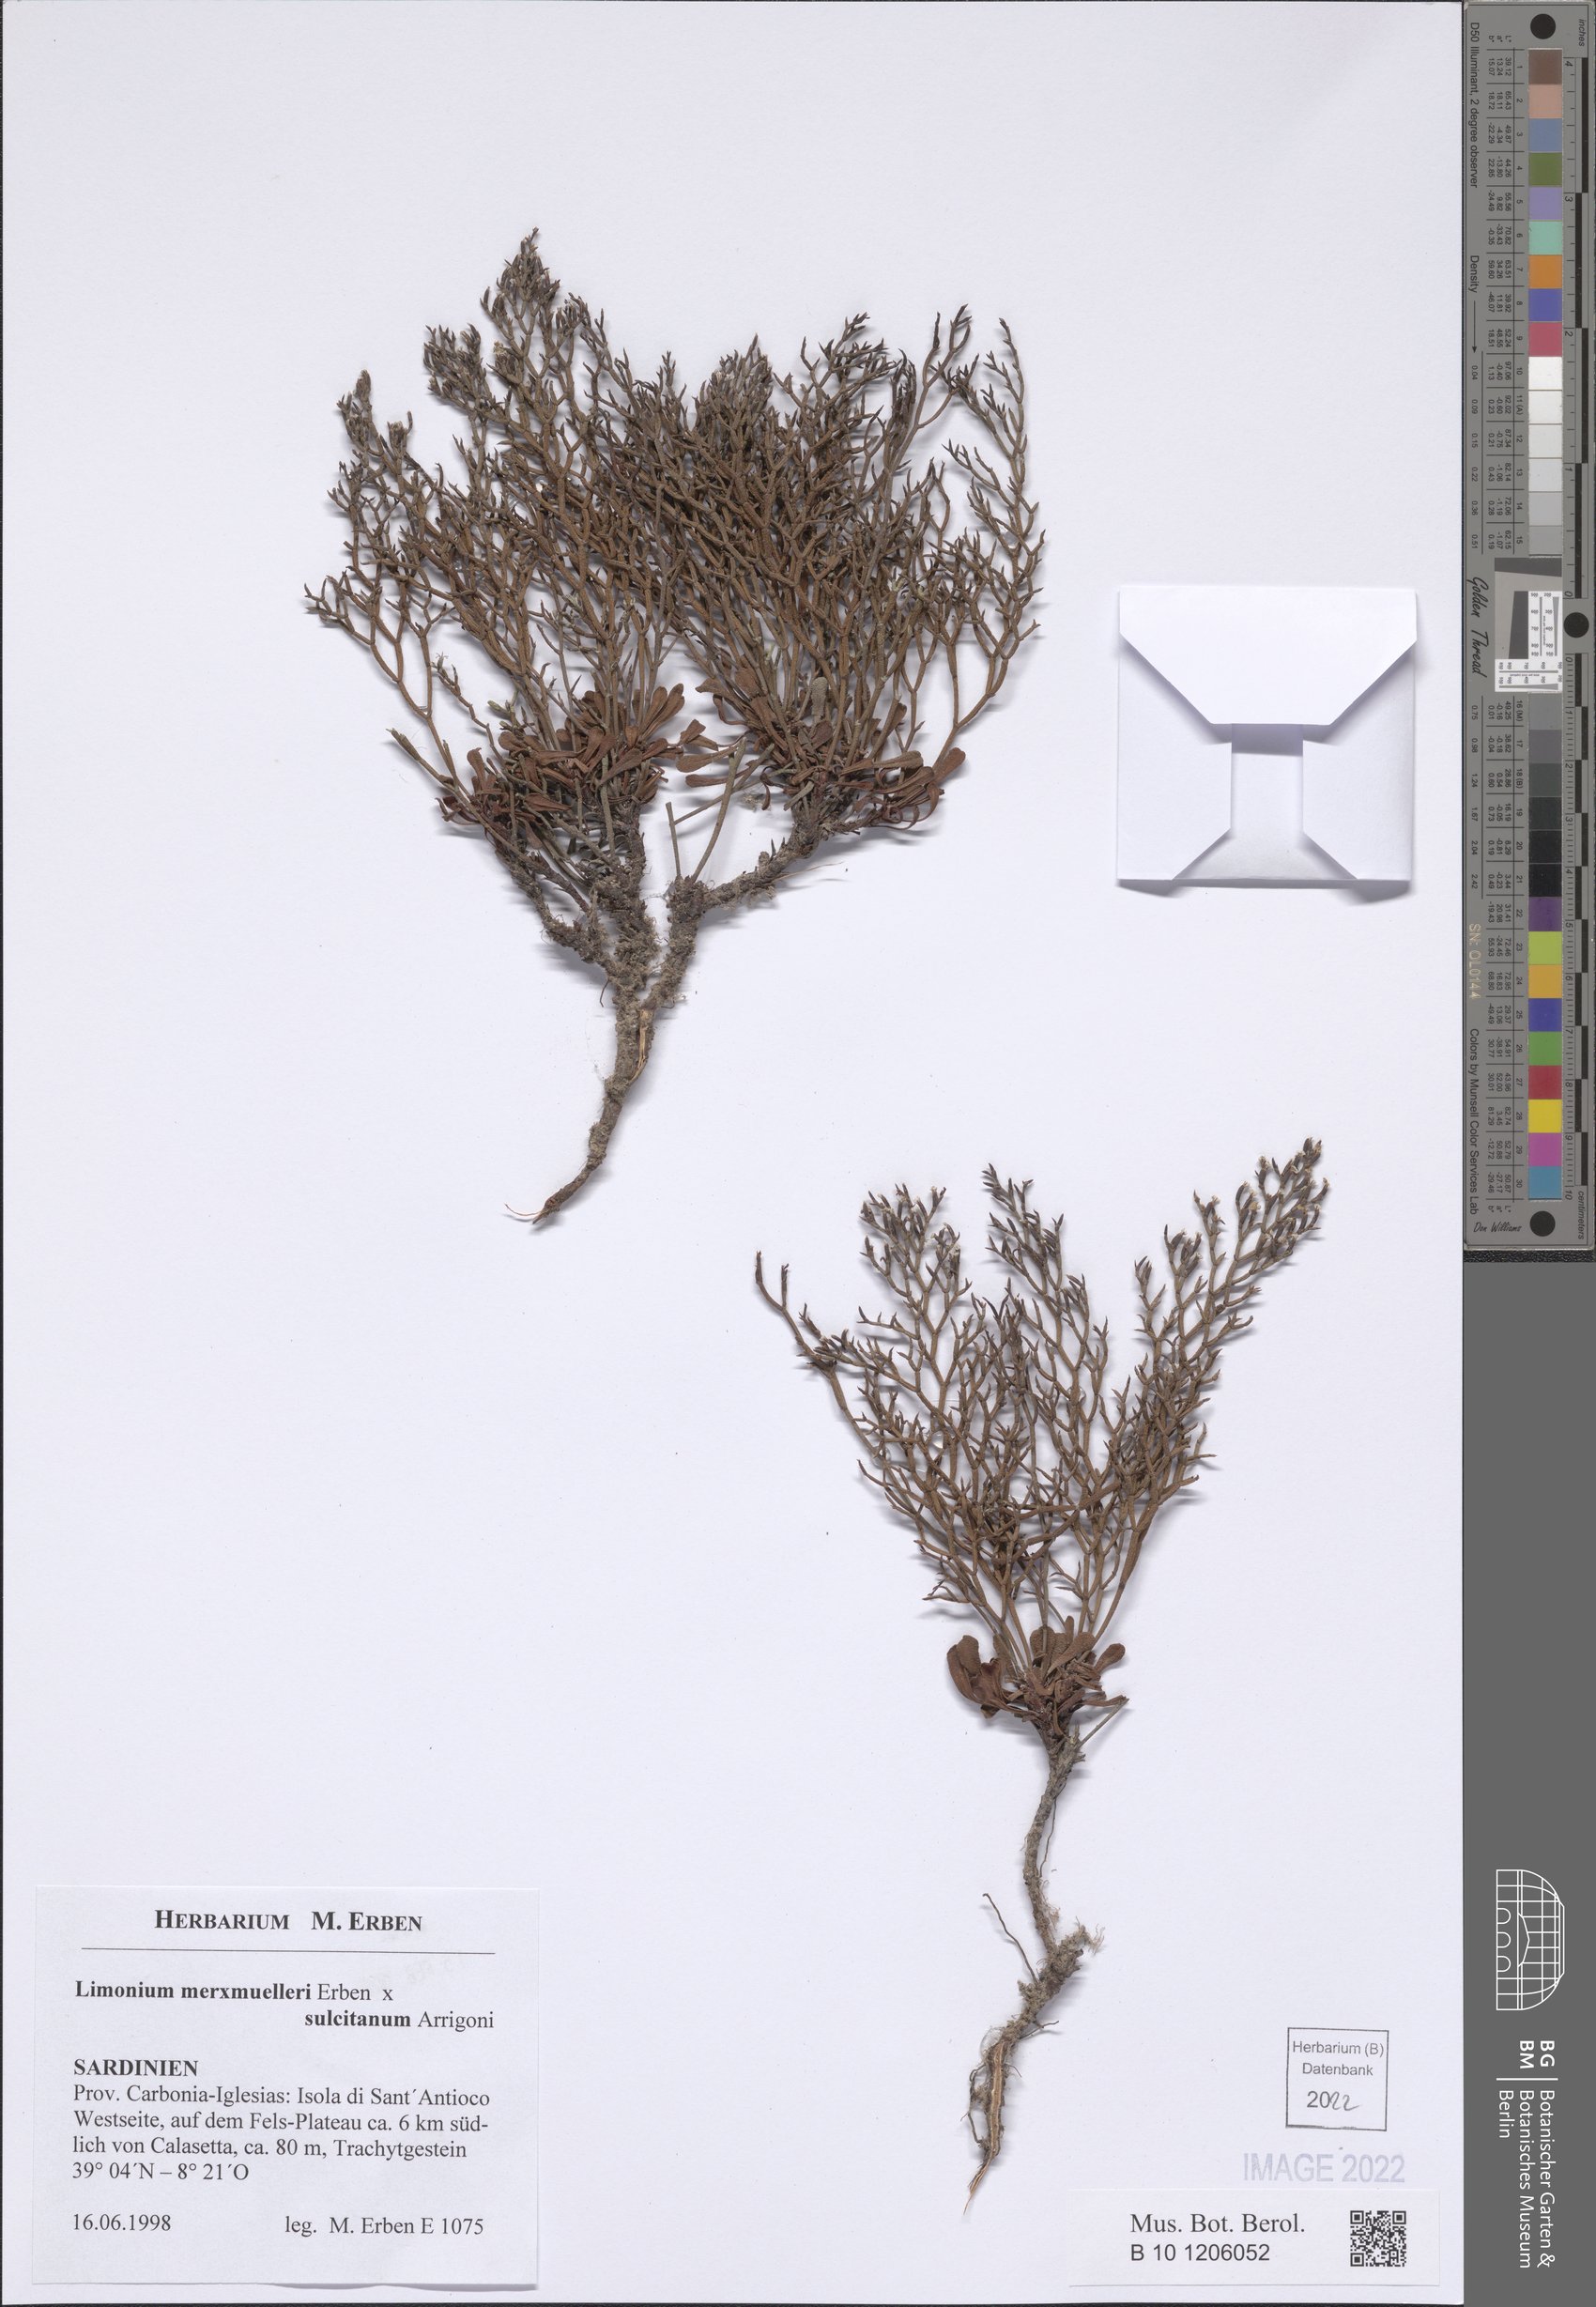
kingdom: Plantae
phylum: Tracheophyta
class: Magnoliopsida
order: Caryophyllales
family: Plumbaginaceae
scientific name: Plumbaginaceae
